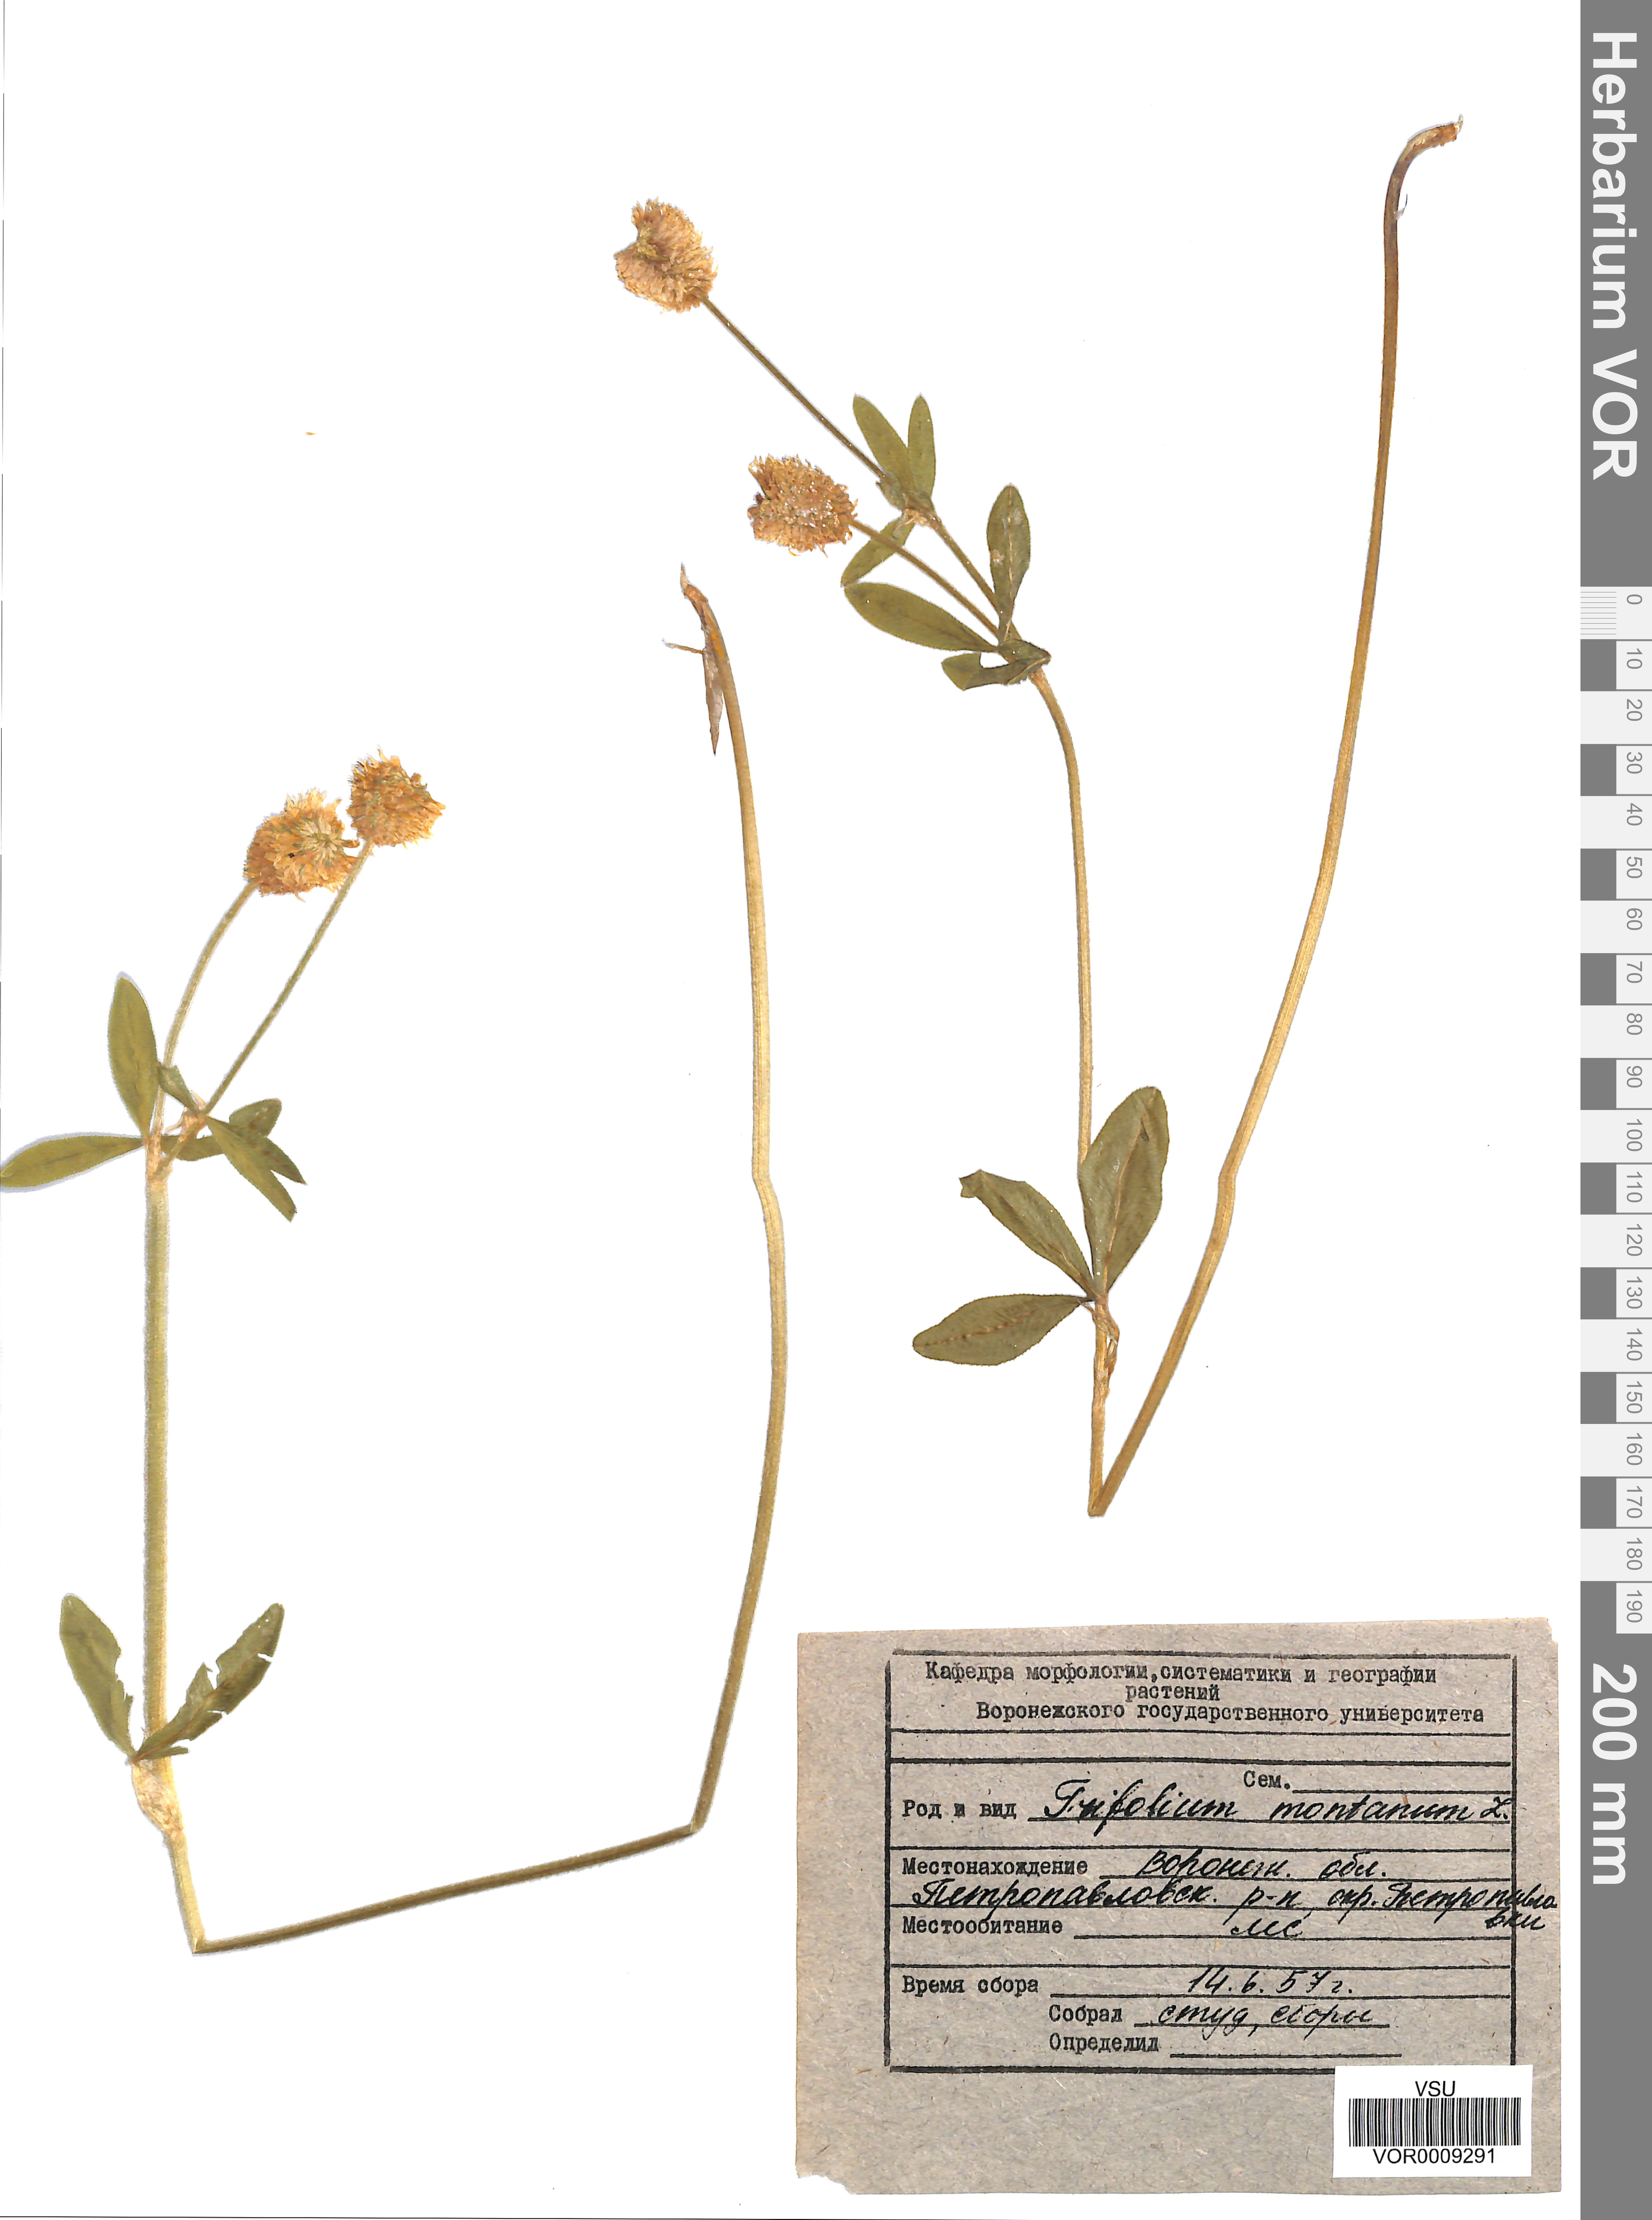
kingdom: Plantae
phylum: Tracheophyta
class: Magnoliopsida
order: Fabales
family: Fabaceae
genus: Trifolium
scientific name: Trifolium montanum
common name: Mountain clover
